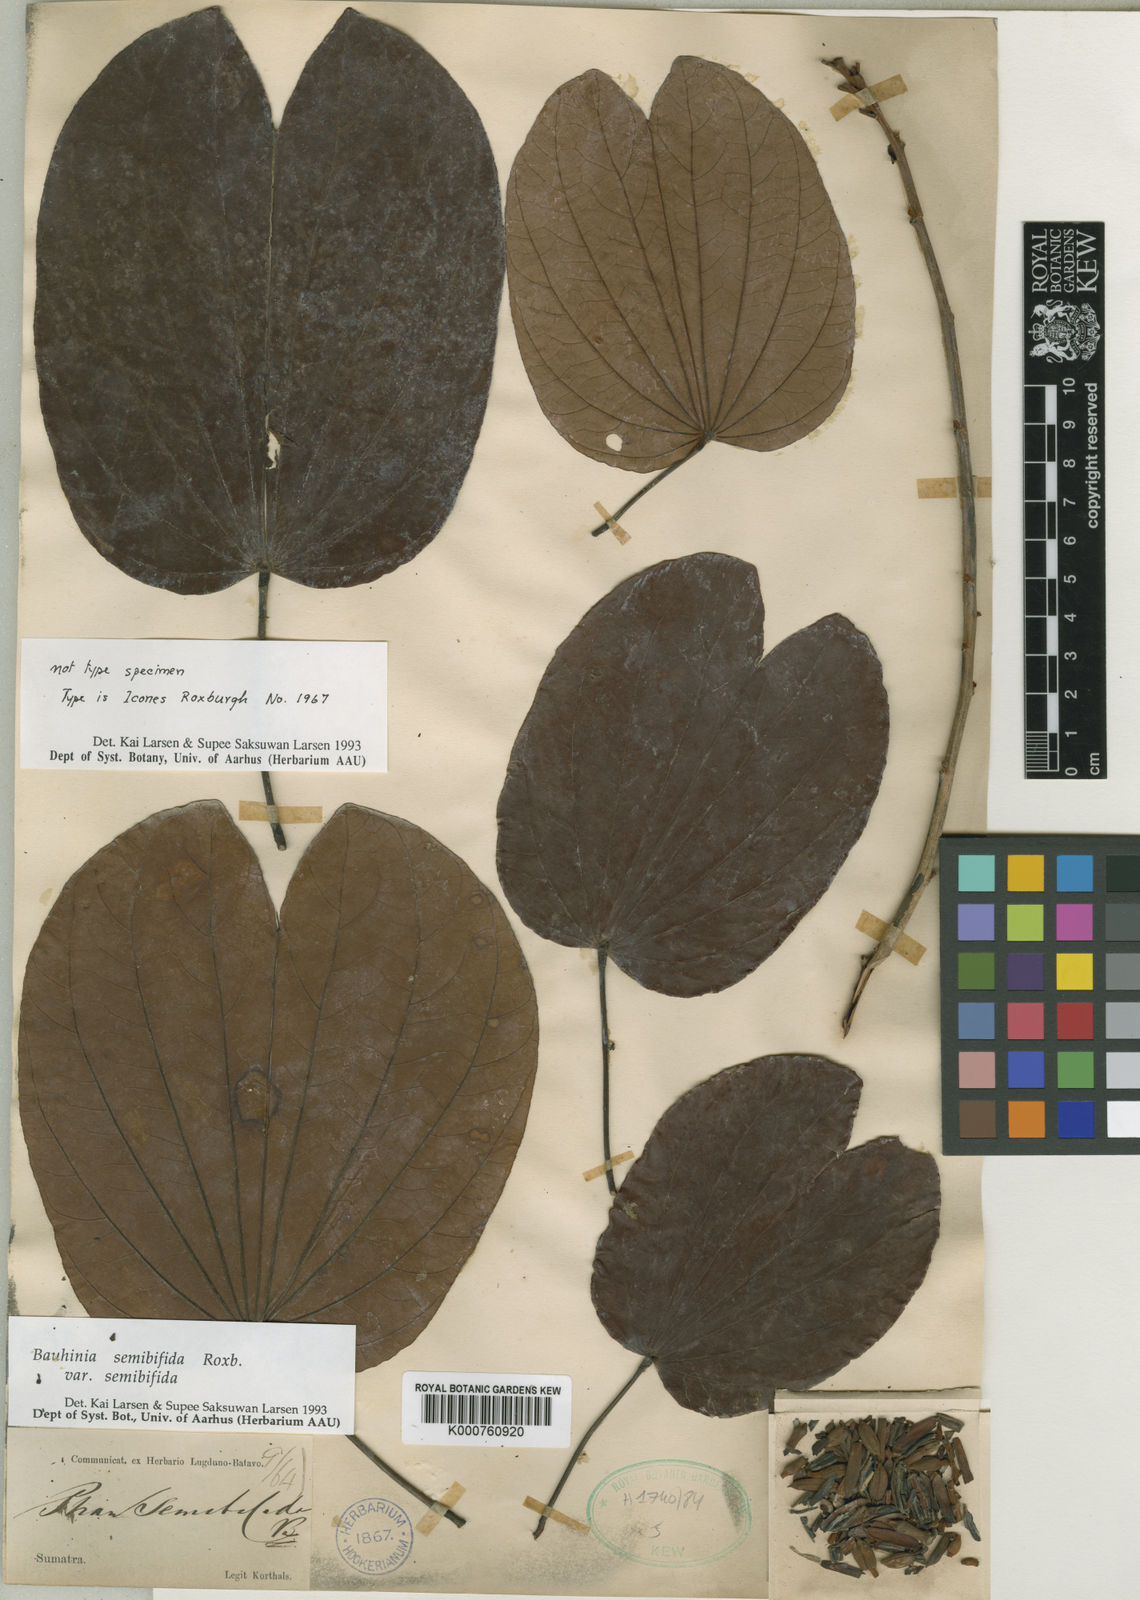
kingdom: Plantae
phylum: Tracheophyta
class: Magnoliopsida
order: Fabales
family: Fabaceae
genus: Phanera
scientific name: Phanera semibifida
